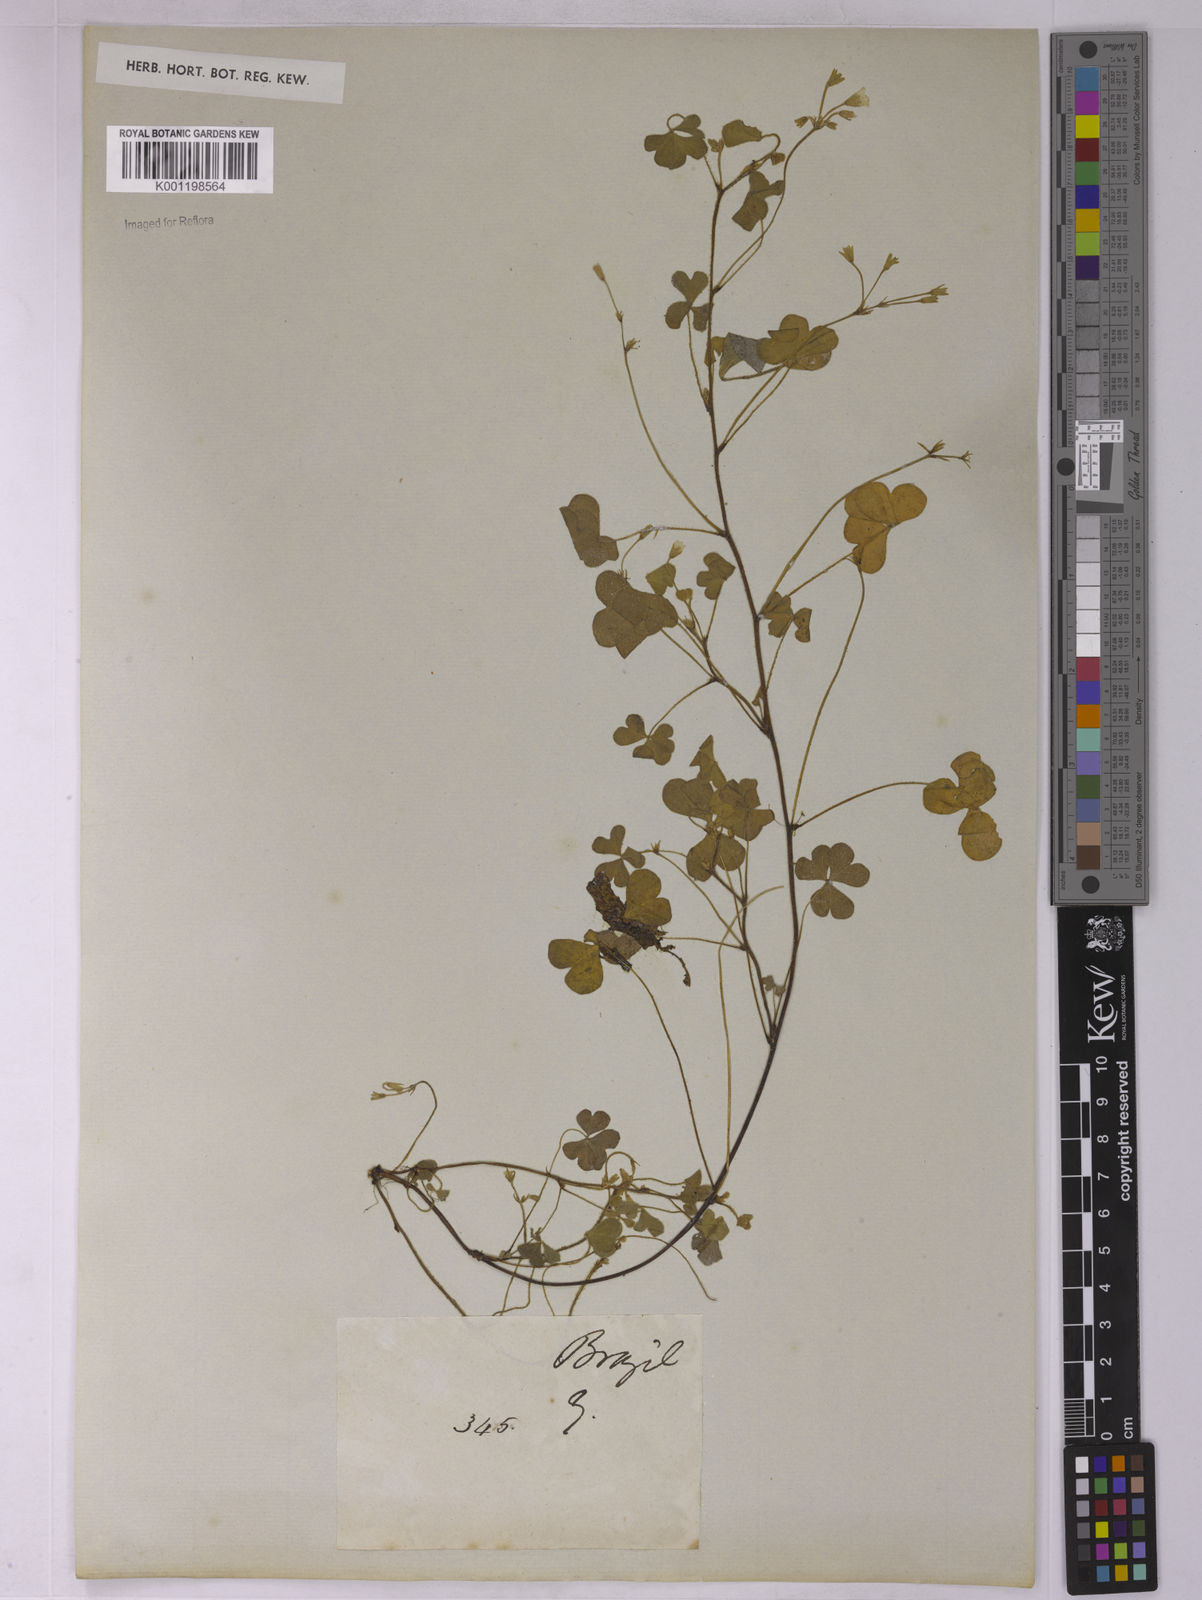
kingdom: Plantae
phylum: Tracheophyta
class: Magnoliopsida
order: Oxalidales
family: Oxalidaceae
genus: Oxalis
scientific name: Oxalis
